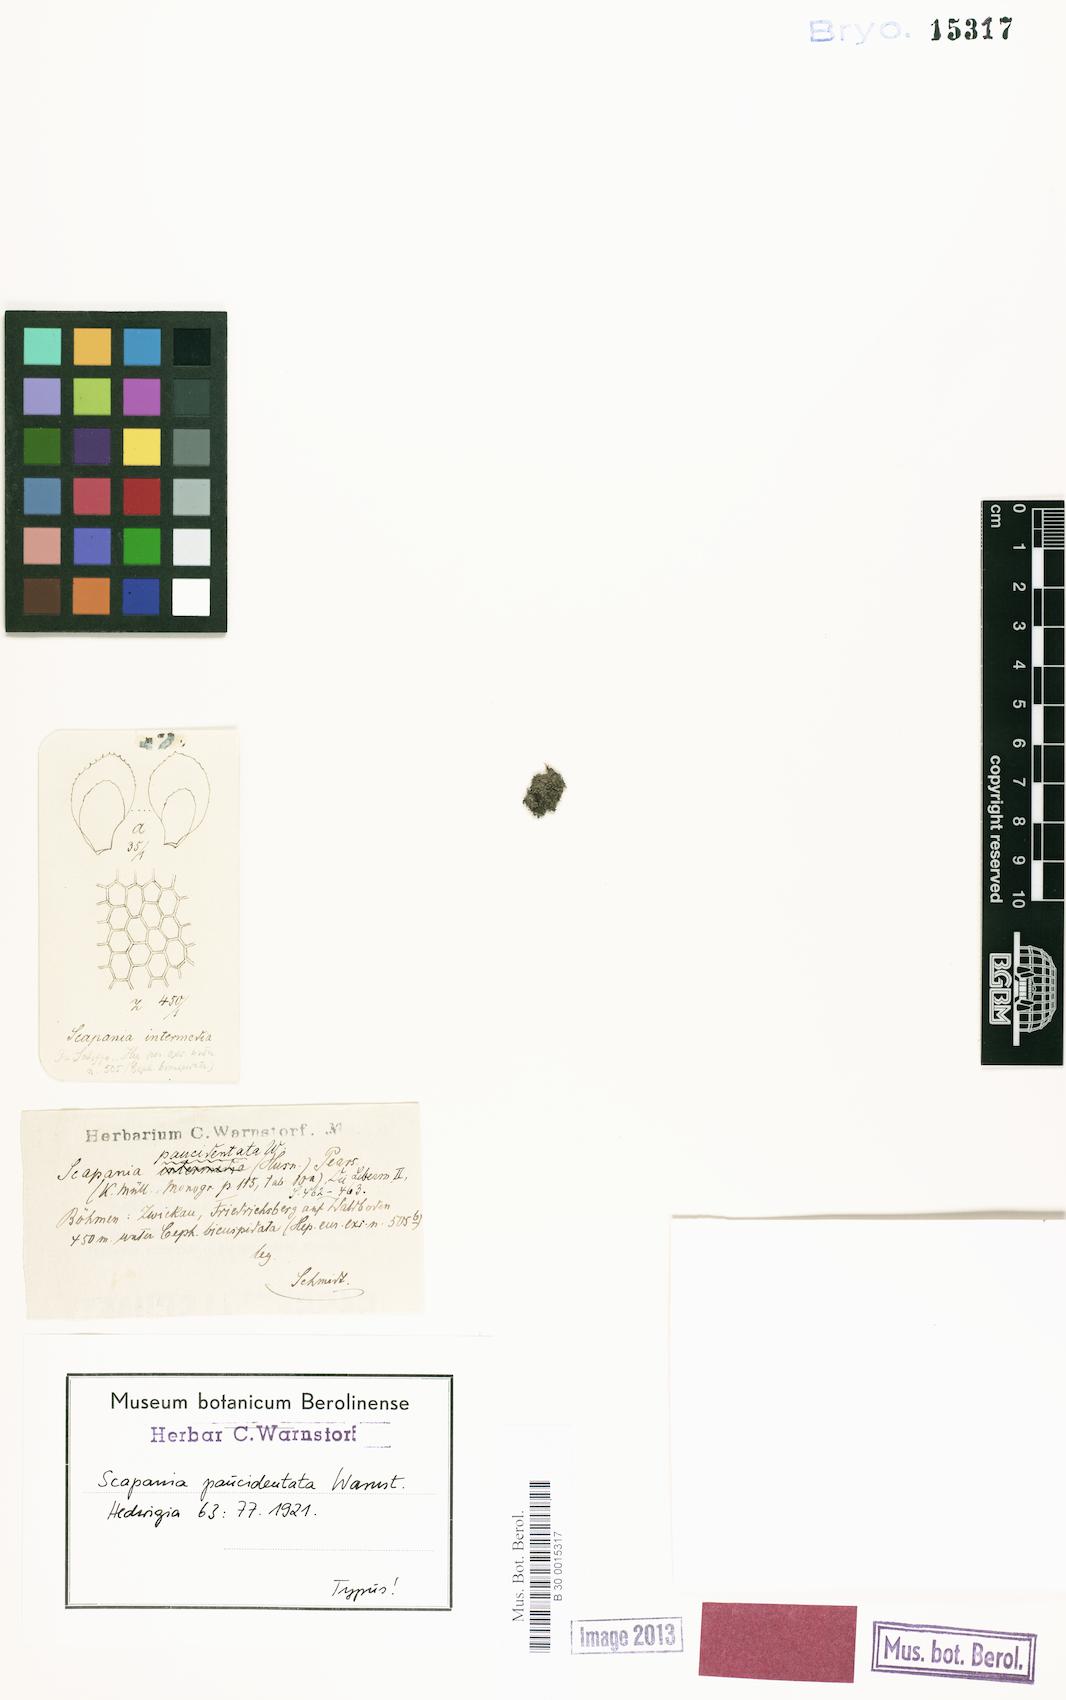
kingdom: Plantae
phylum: Marchantiophyta
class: Jungermanniopsida
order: Jungermanniales
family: Scapaniaceae
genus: Scapania
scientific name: Scapania undulata
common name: Water earwort
